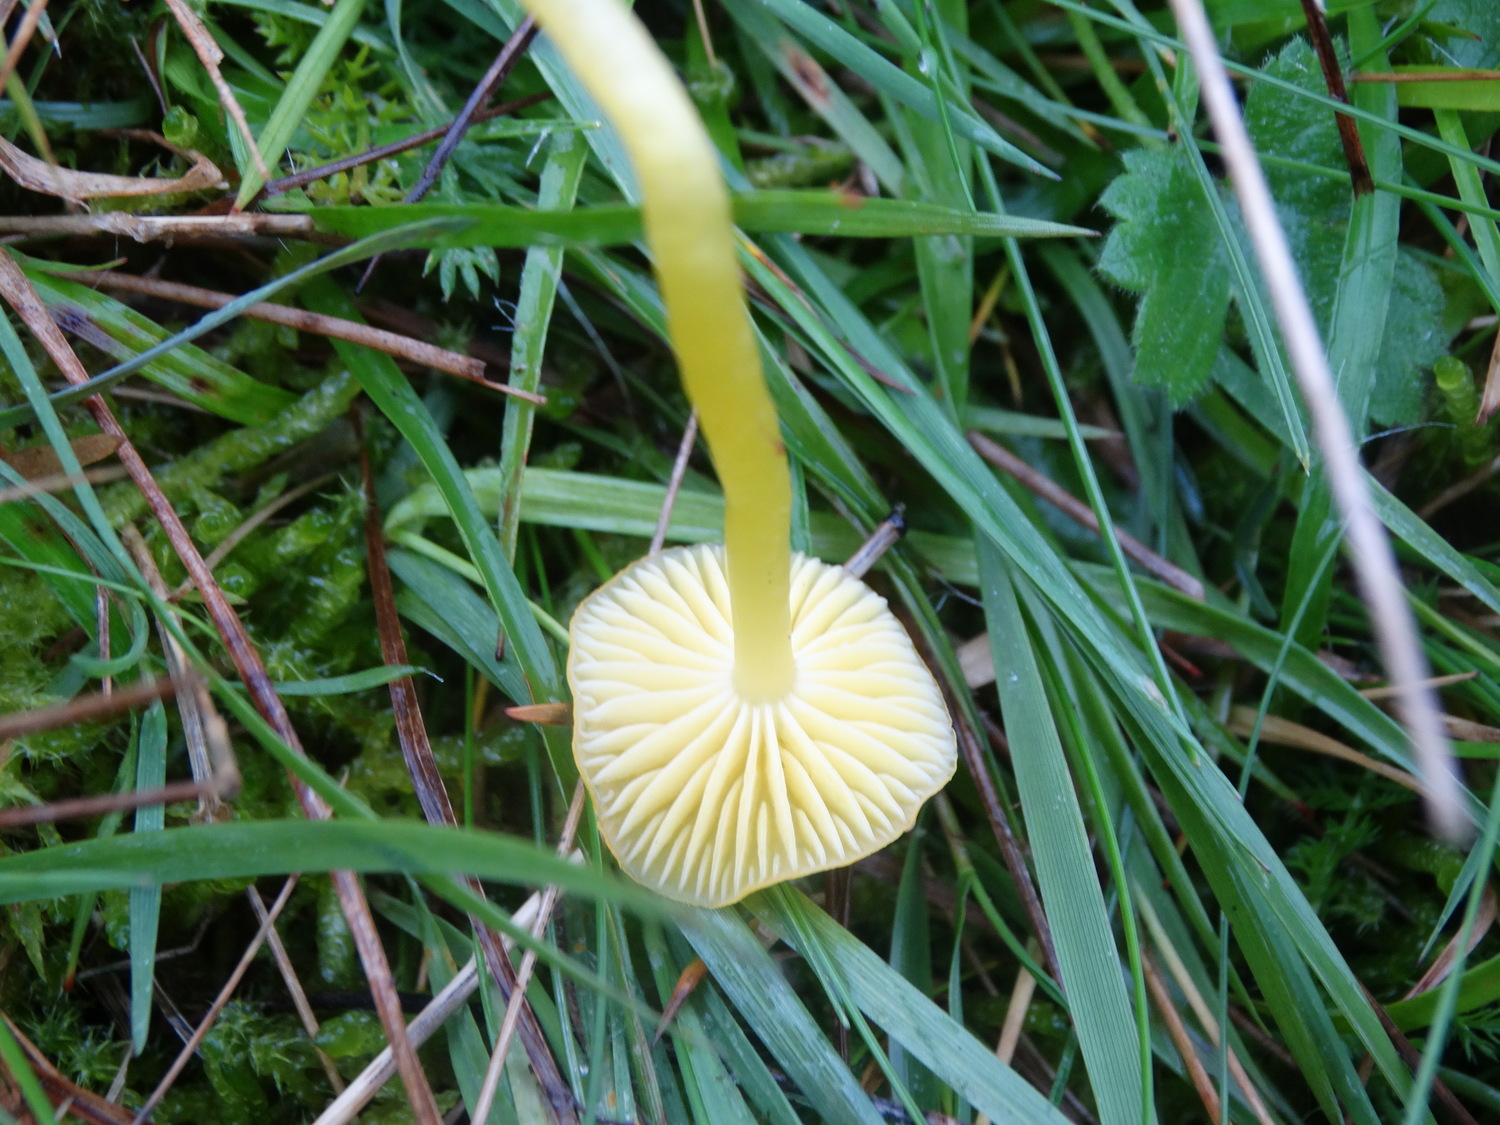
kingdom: Fungi
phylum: Basidiomycota
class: Agaricomycetes
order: Agaricales
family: Hygrophoraceae
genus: Hygrocybe
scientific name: Hygrocybe ceracea
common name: voksgul vokshat
